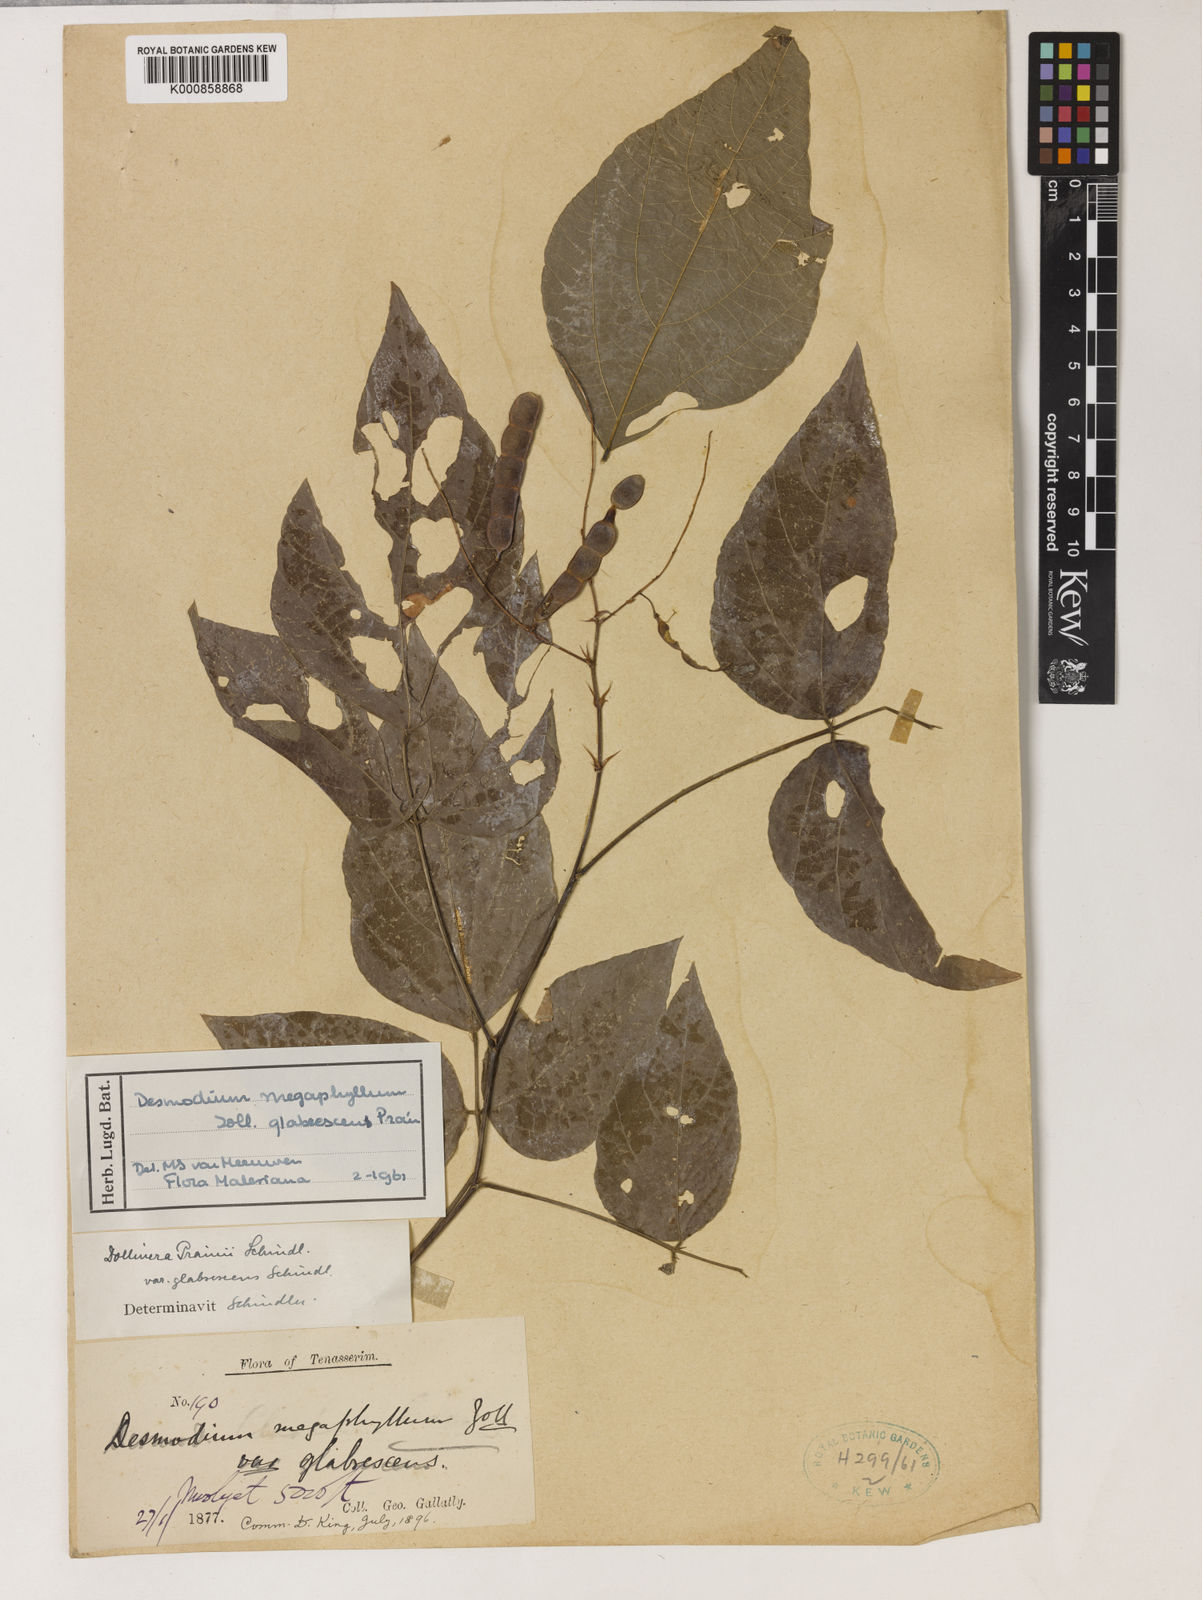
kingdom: Plantae
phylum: Tracheophyta
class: Magnoliopsida
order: Fabales
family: Fabaceae
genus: Puhuaea
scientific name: Puhuaea megaphylla
